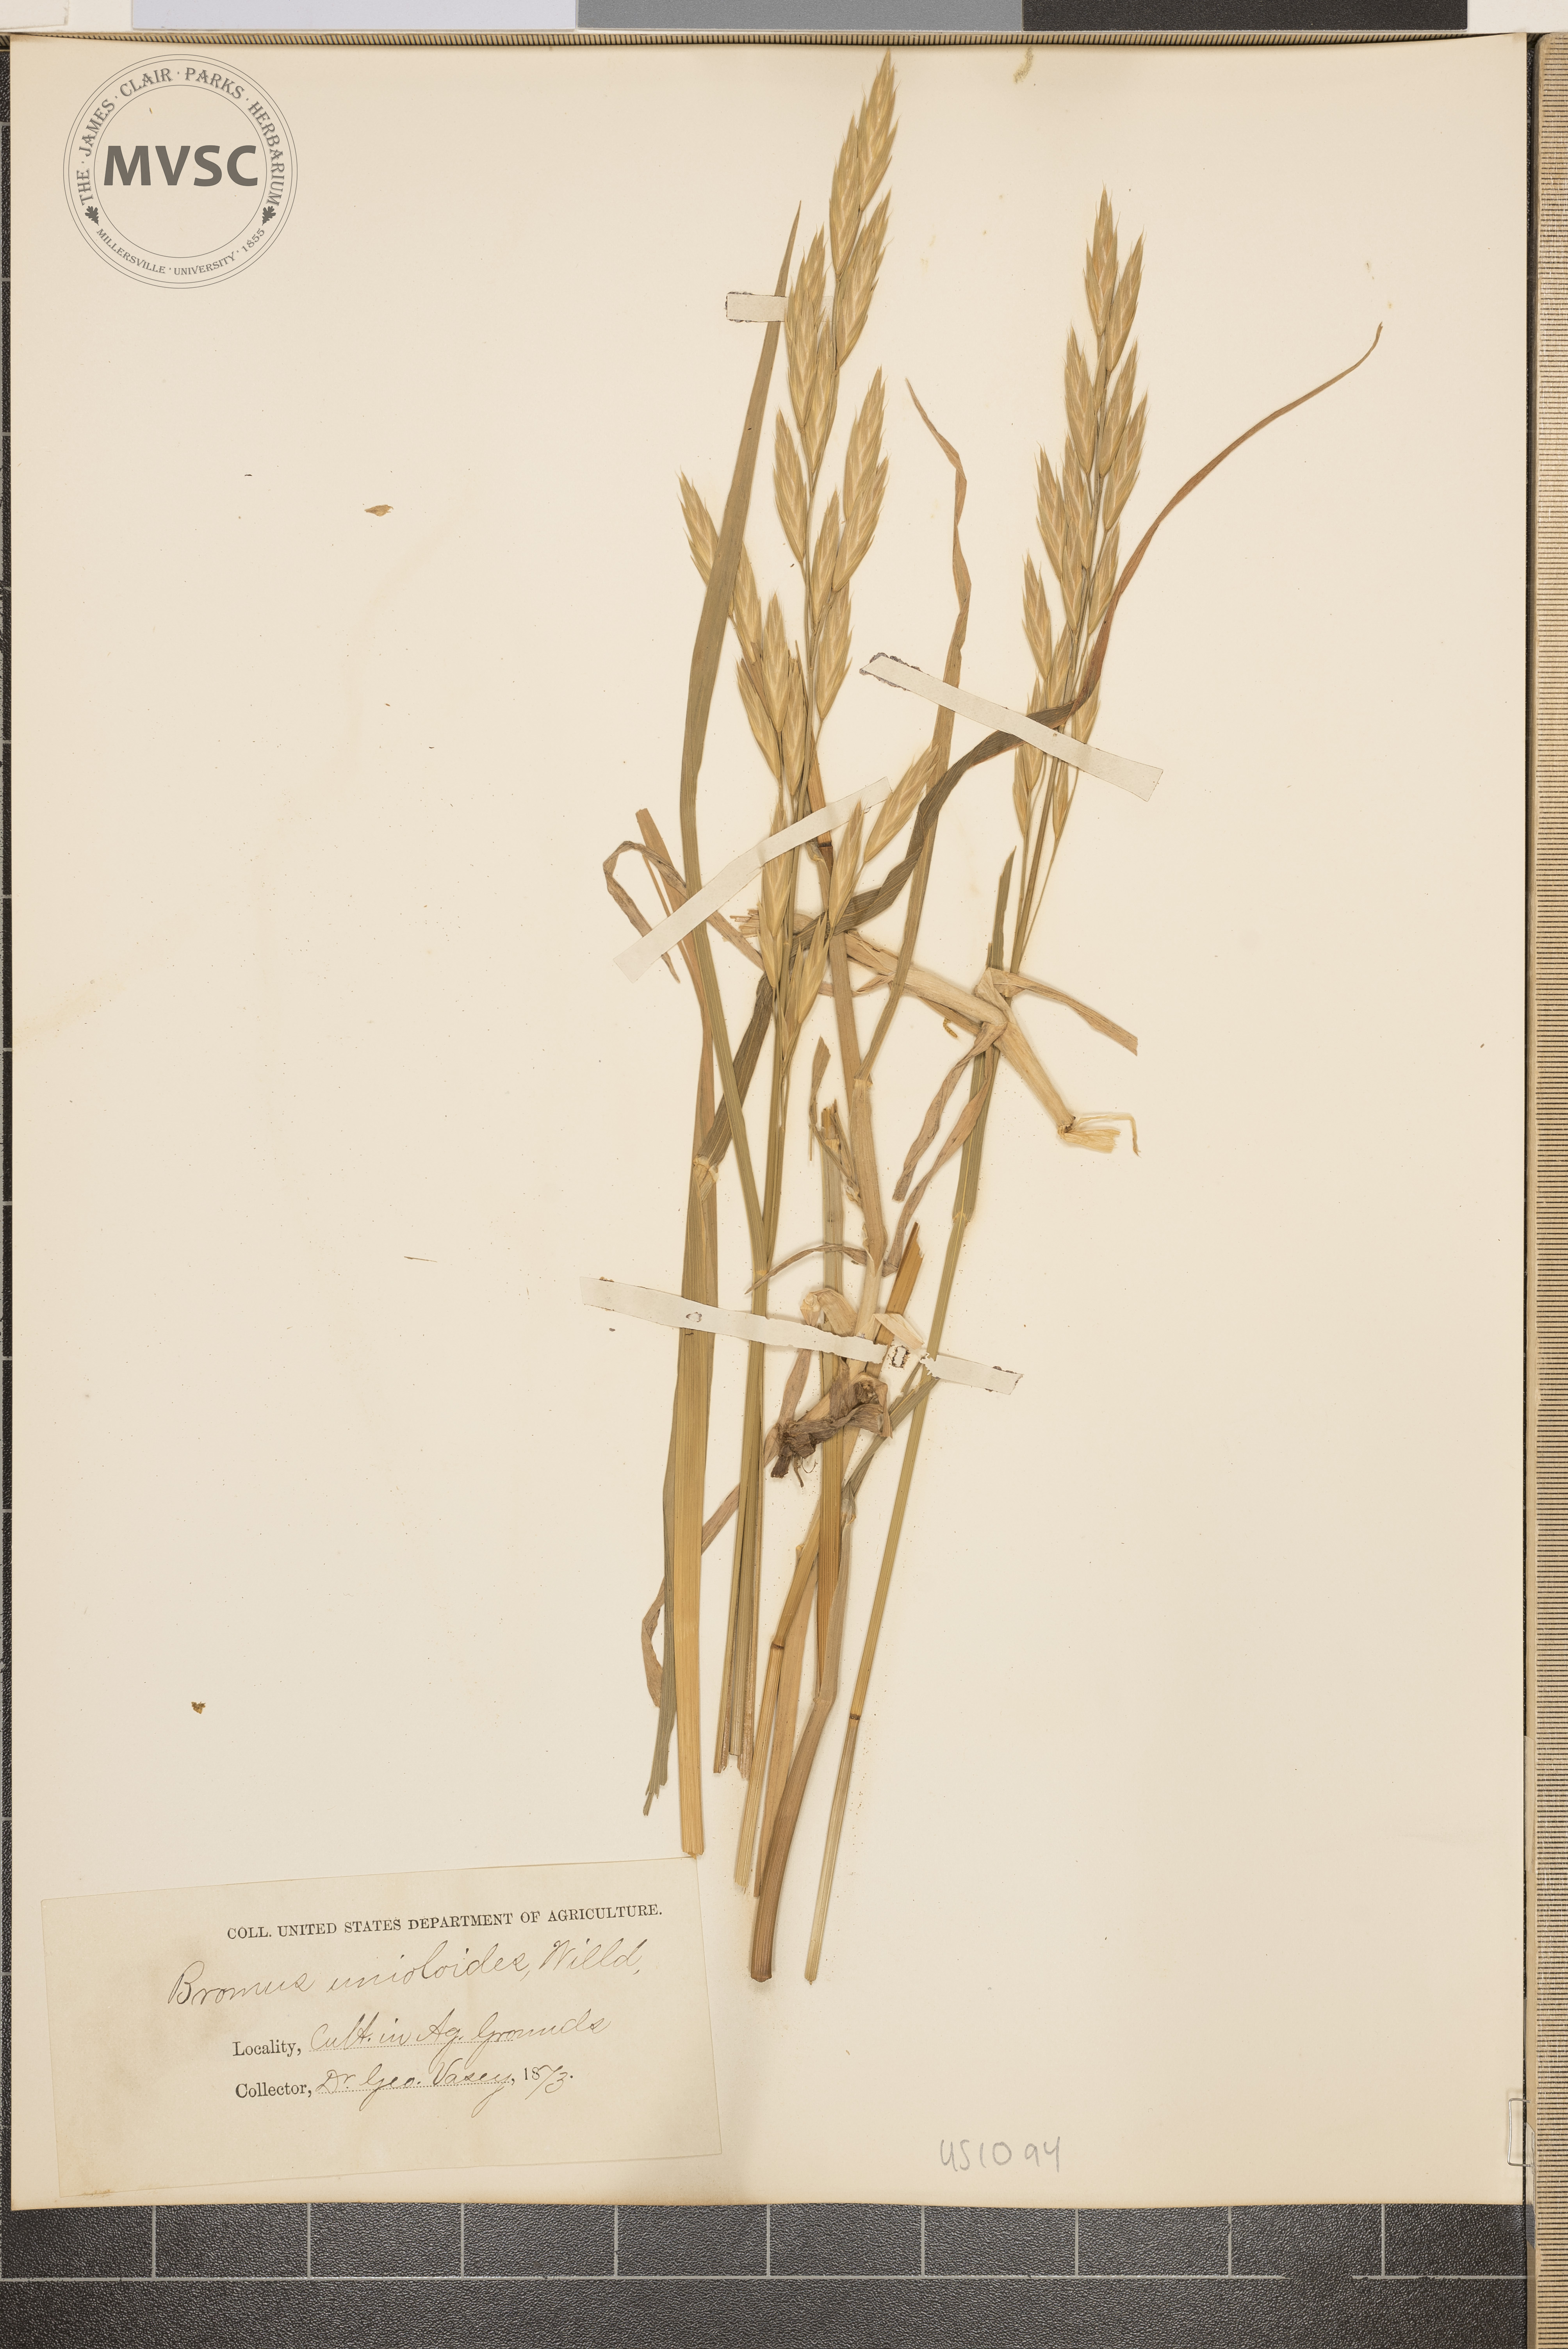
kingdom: Plantae
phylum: Tracheophyta
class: Liliopsida
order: Poales
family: Poaceae
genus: Bromus
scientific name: Bromus catharticus
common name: Rescuegrass
